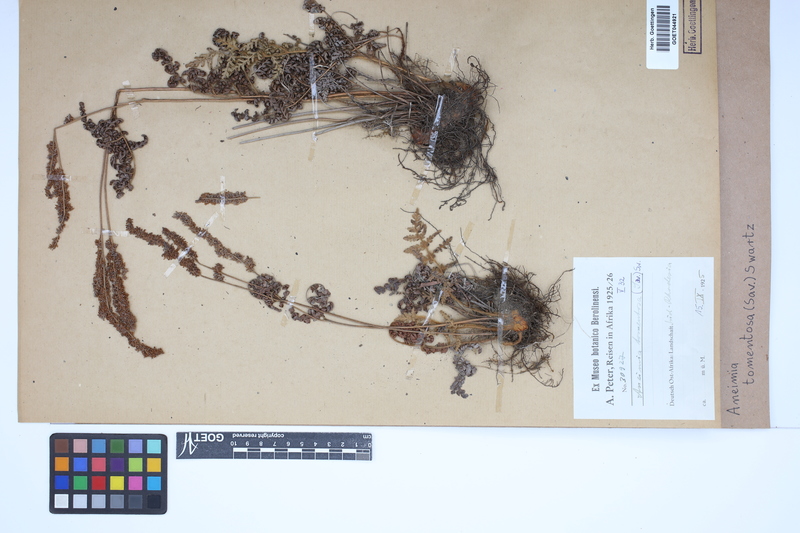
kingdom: Plantae
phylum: Tracheophyta
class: Polypodiopsida
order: Schizaeales
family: Anemiaceae
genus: Anemia
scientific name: Anemia tomentosa
